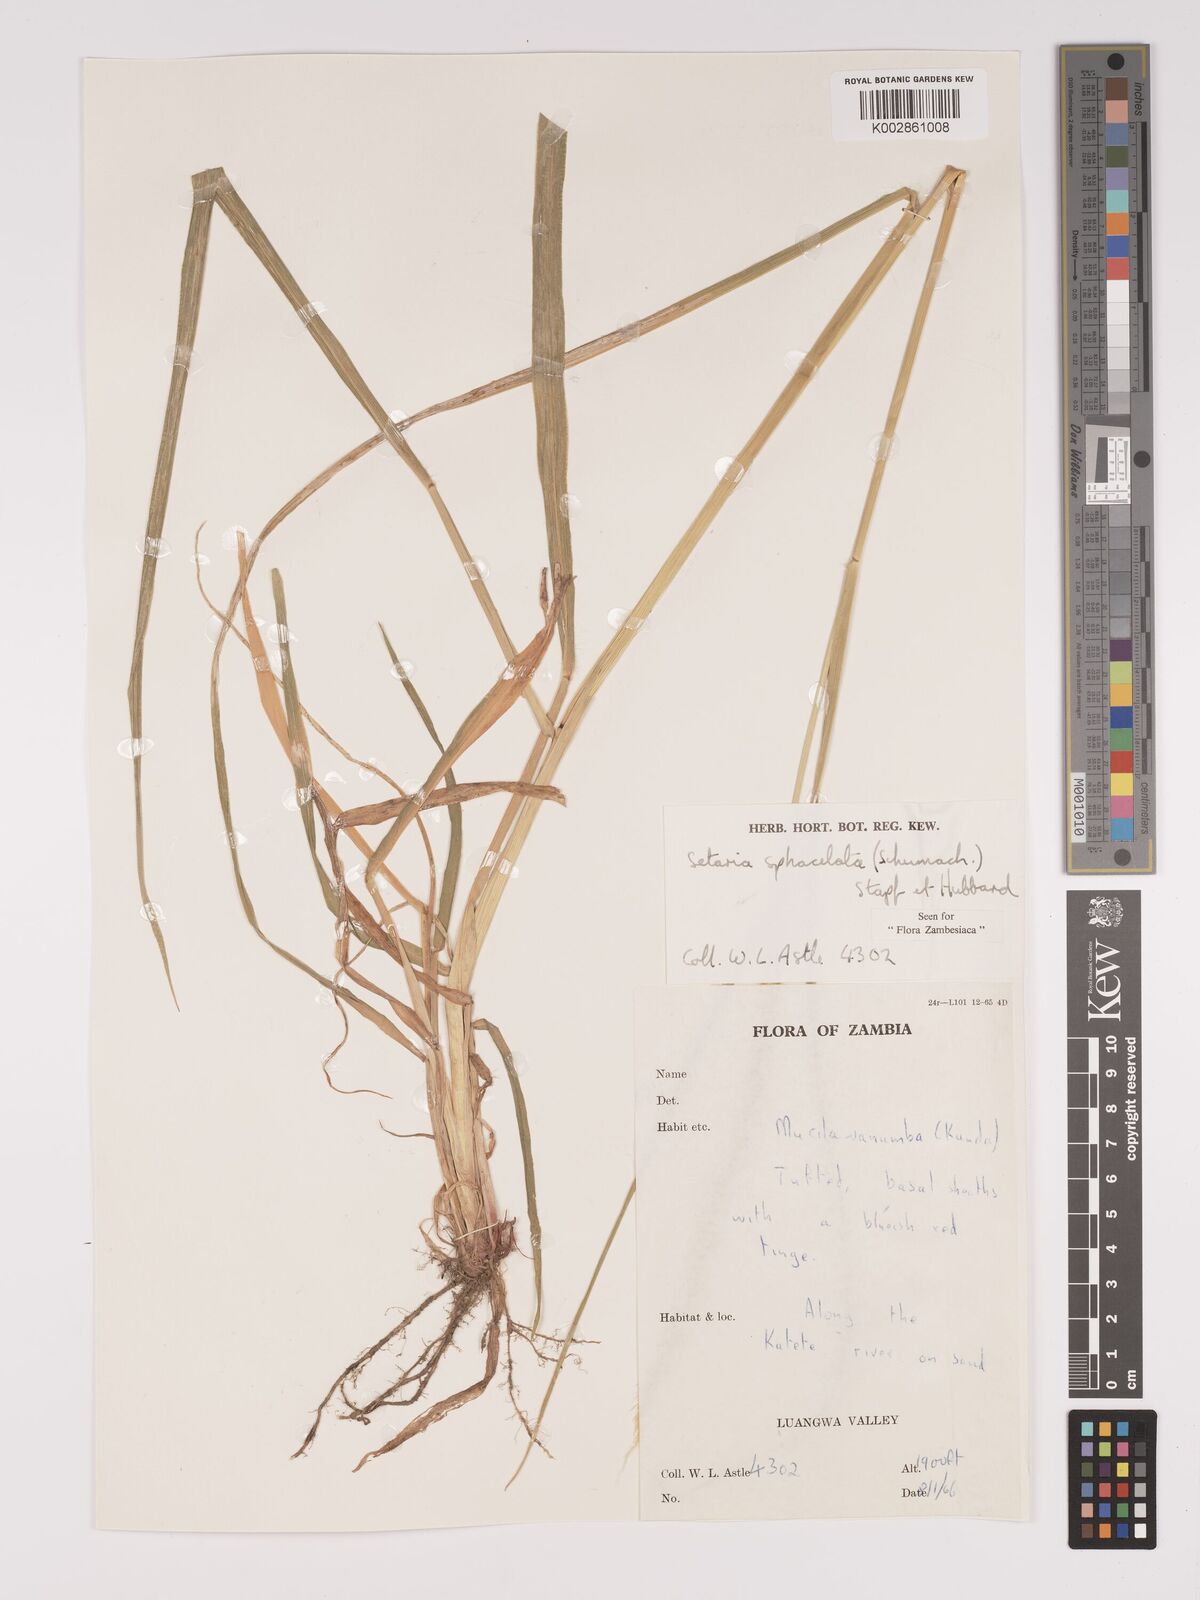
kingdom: Plantae
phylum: Tracheophyta
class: Liliopsida
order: Poales
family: Poaceae
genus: Setaria
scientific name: Setaria sphacelata
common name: African bristlegrass
